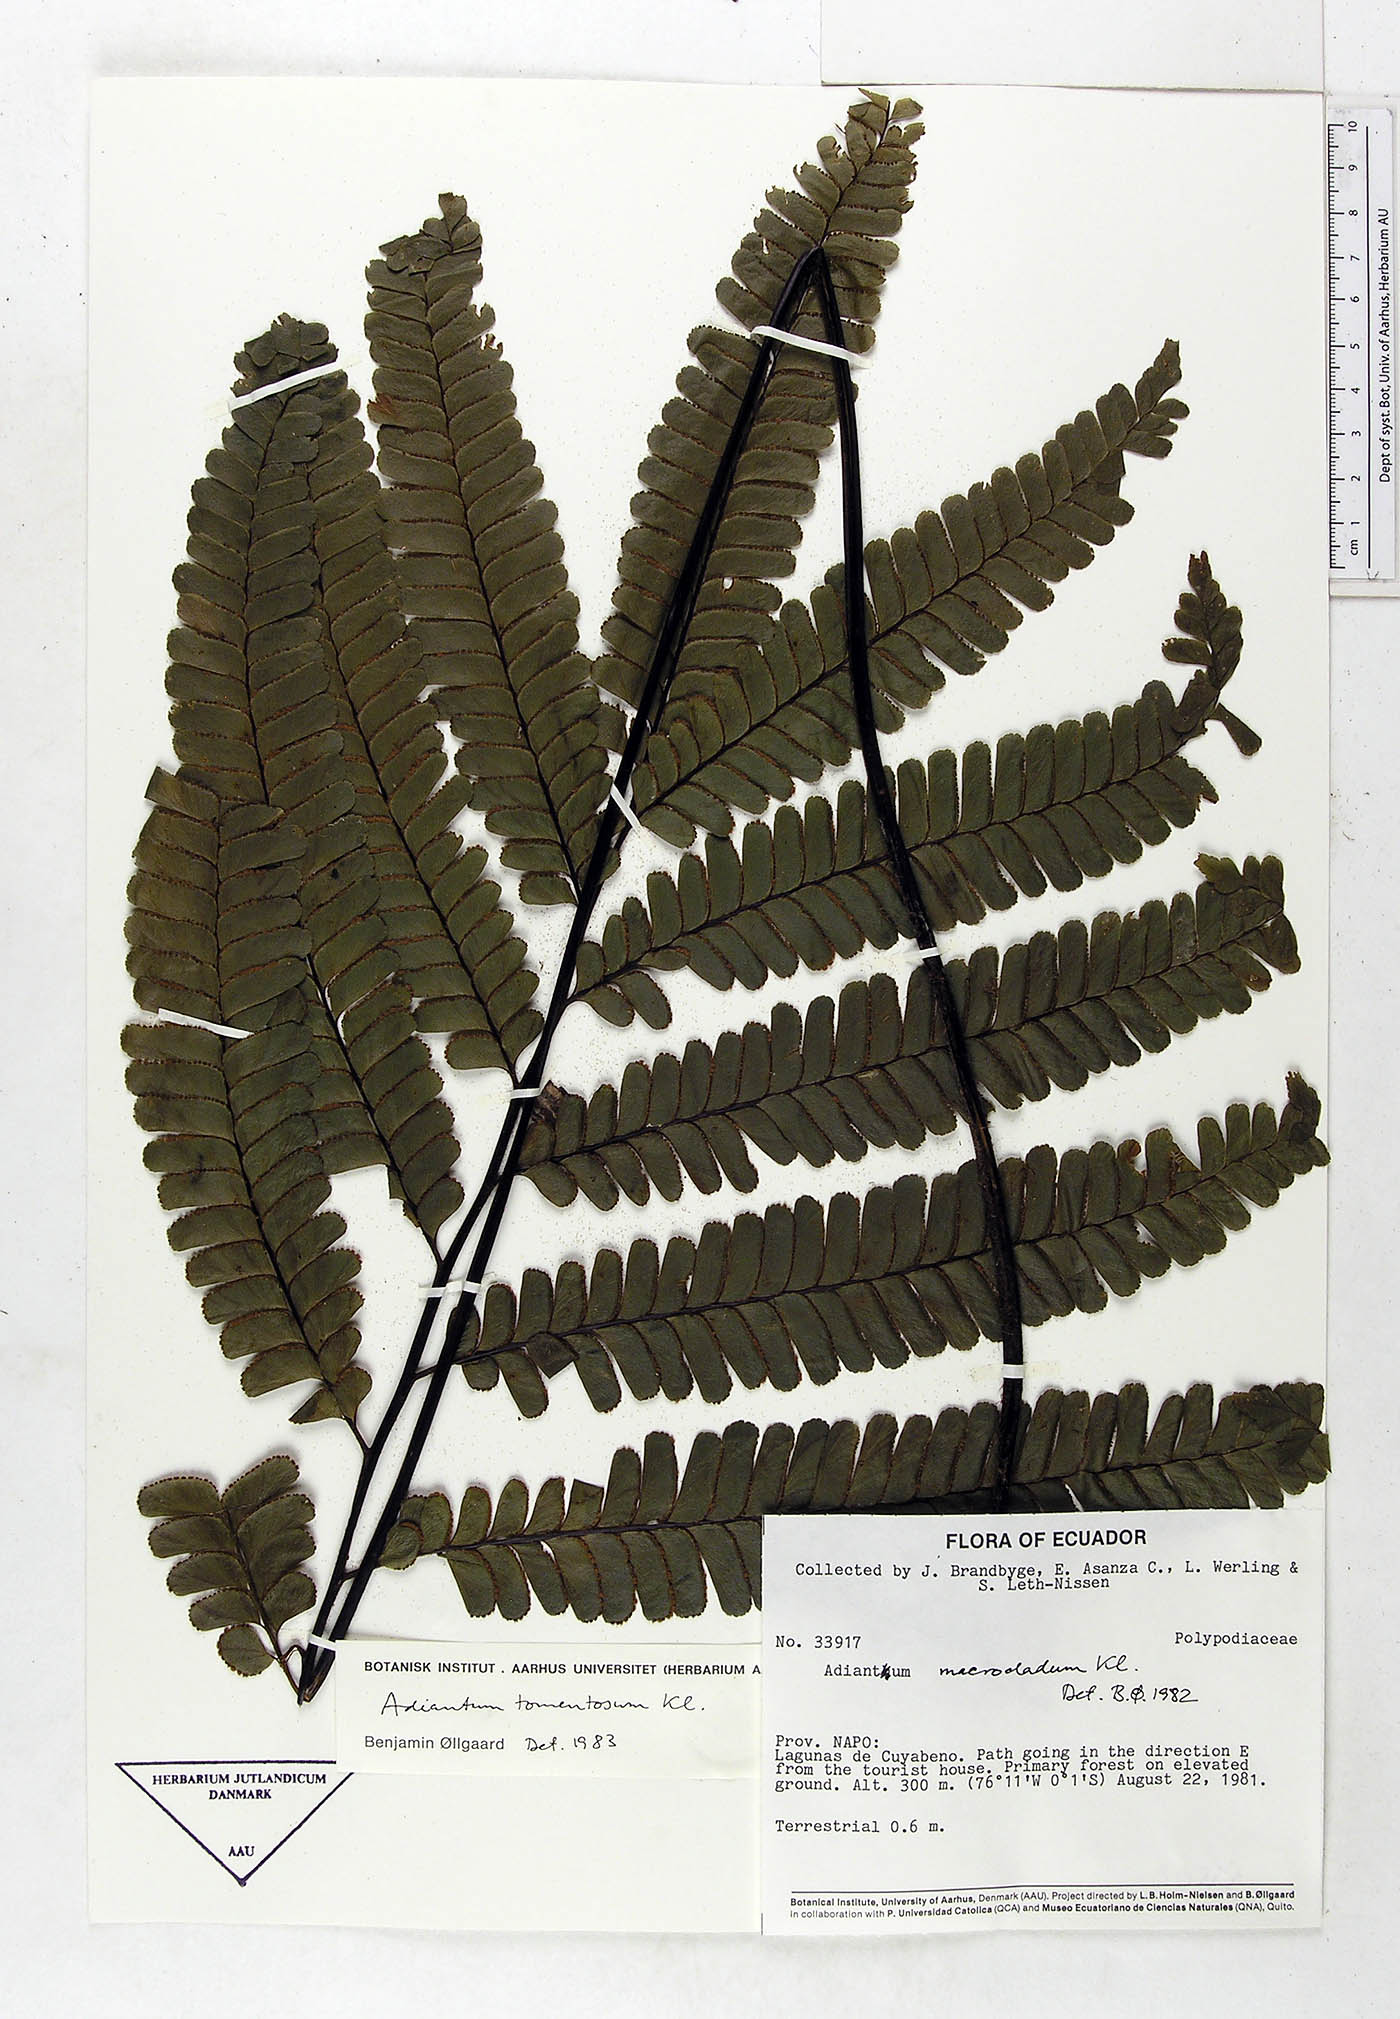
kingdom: Plantae
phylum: Tracheophyta
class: Polypodiopsida
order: Polypodiales
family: Pteridaceae
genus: Adiantum
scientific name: Adiantum tomentosum
